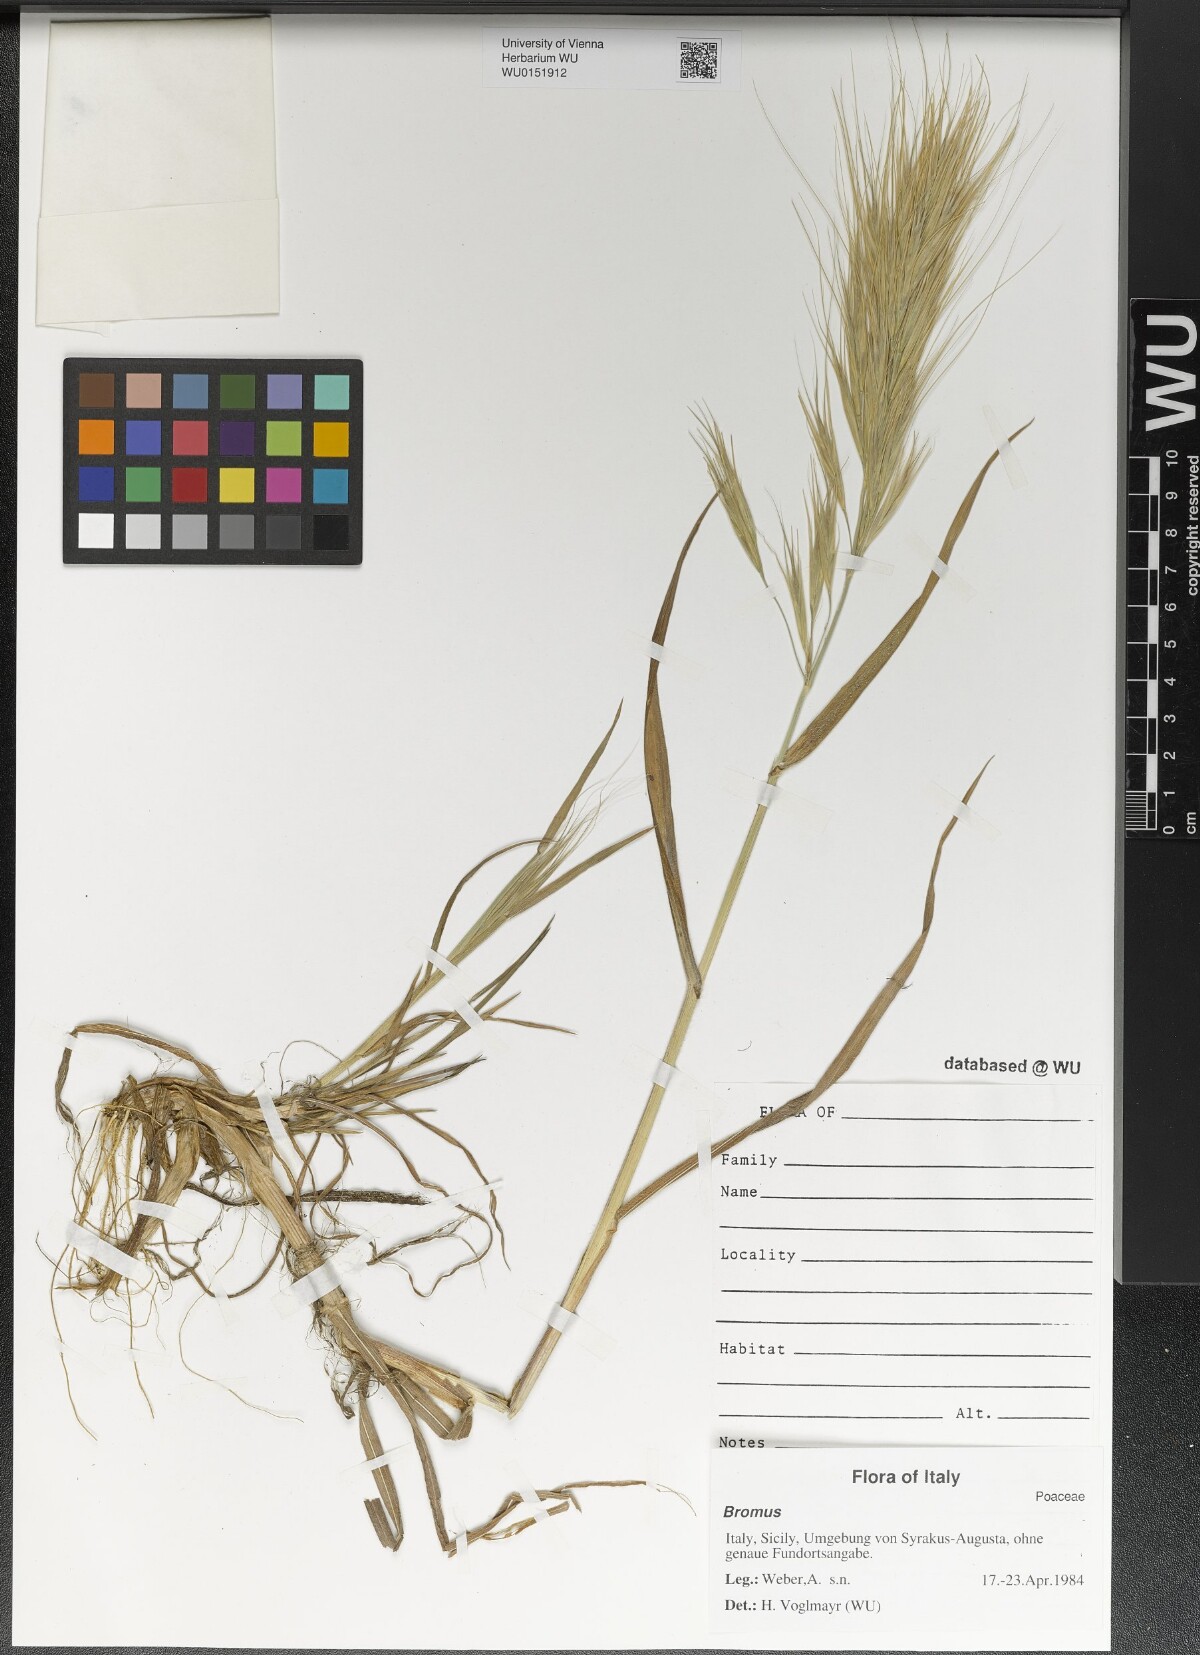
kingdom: Plantae
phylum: Tracheophyta
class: Liliopsida
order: Poales
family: Poaceae
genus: Bromus
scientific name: Bromus
